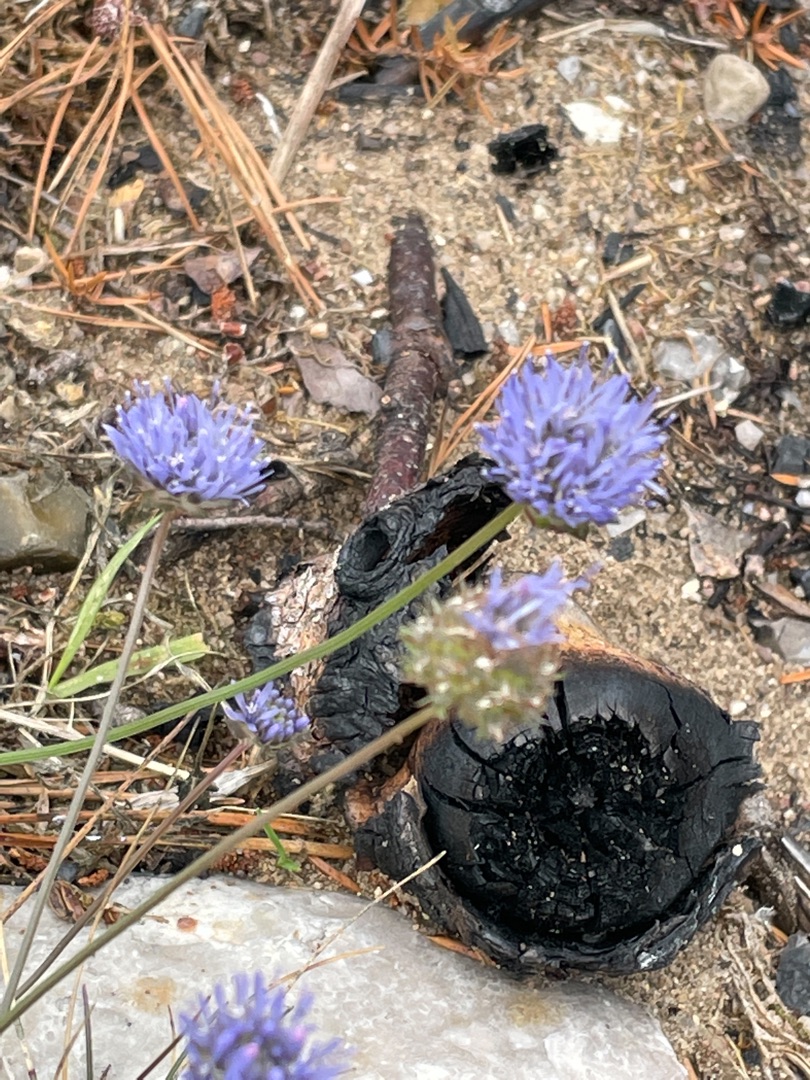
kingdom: Plantae
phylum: Tracheophyta
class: Magnoliopsida
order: Asterales
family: Campanulaceae
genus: Jasione
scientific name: Jasione montana
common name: Blåmunke
